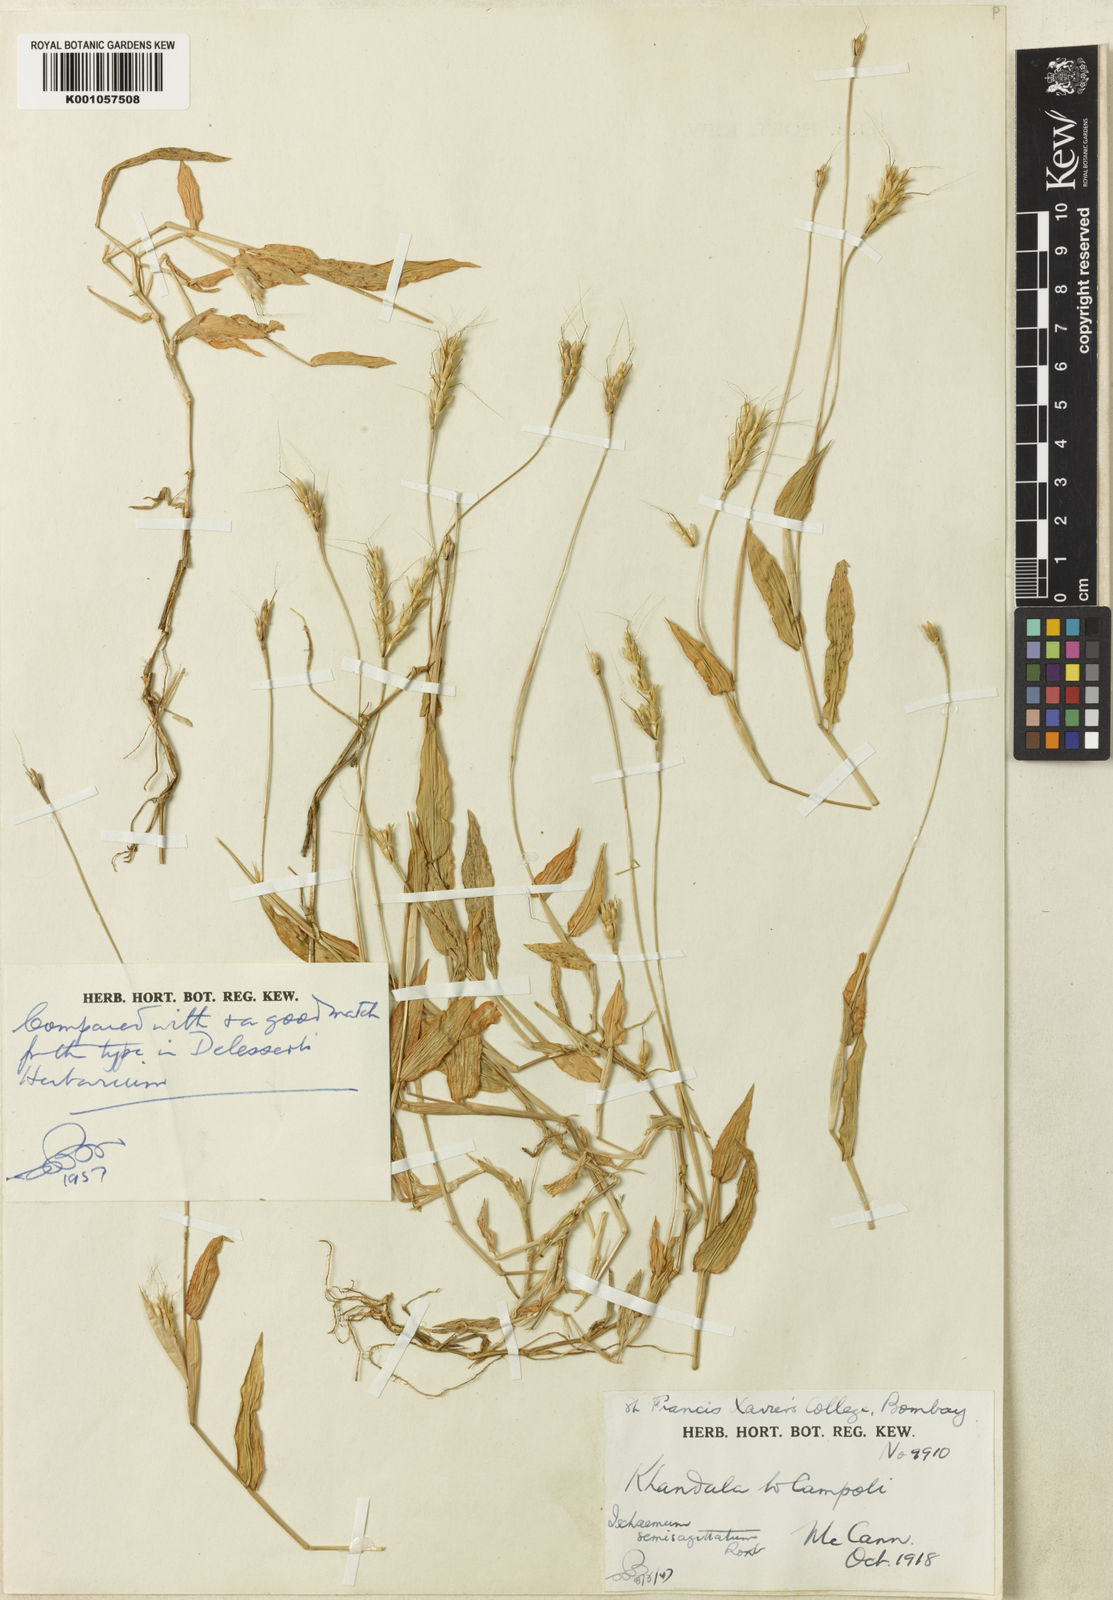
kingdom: Plantae
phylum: Tracheophyta
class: Liliopsida
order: Poales
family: Poaceae
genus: Ischaemum
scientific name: Ischaemum semisagittatum
